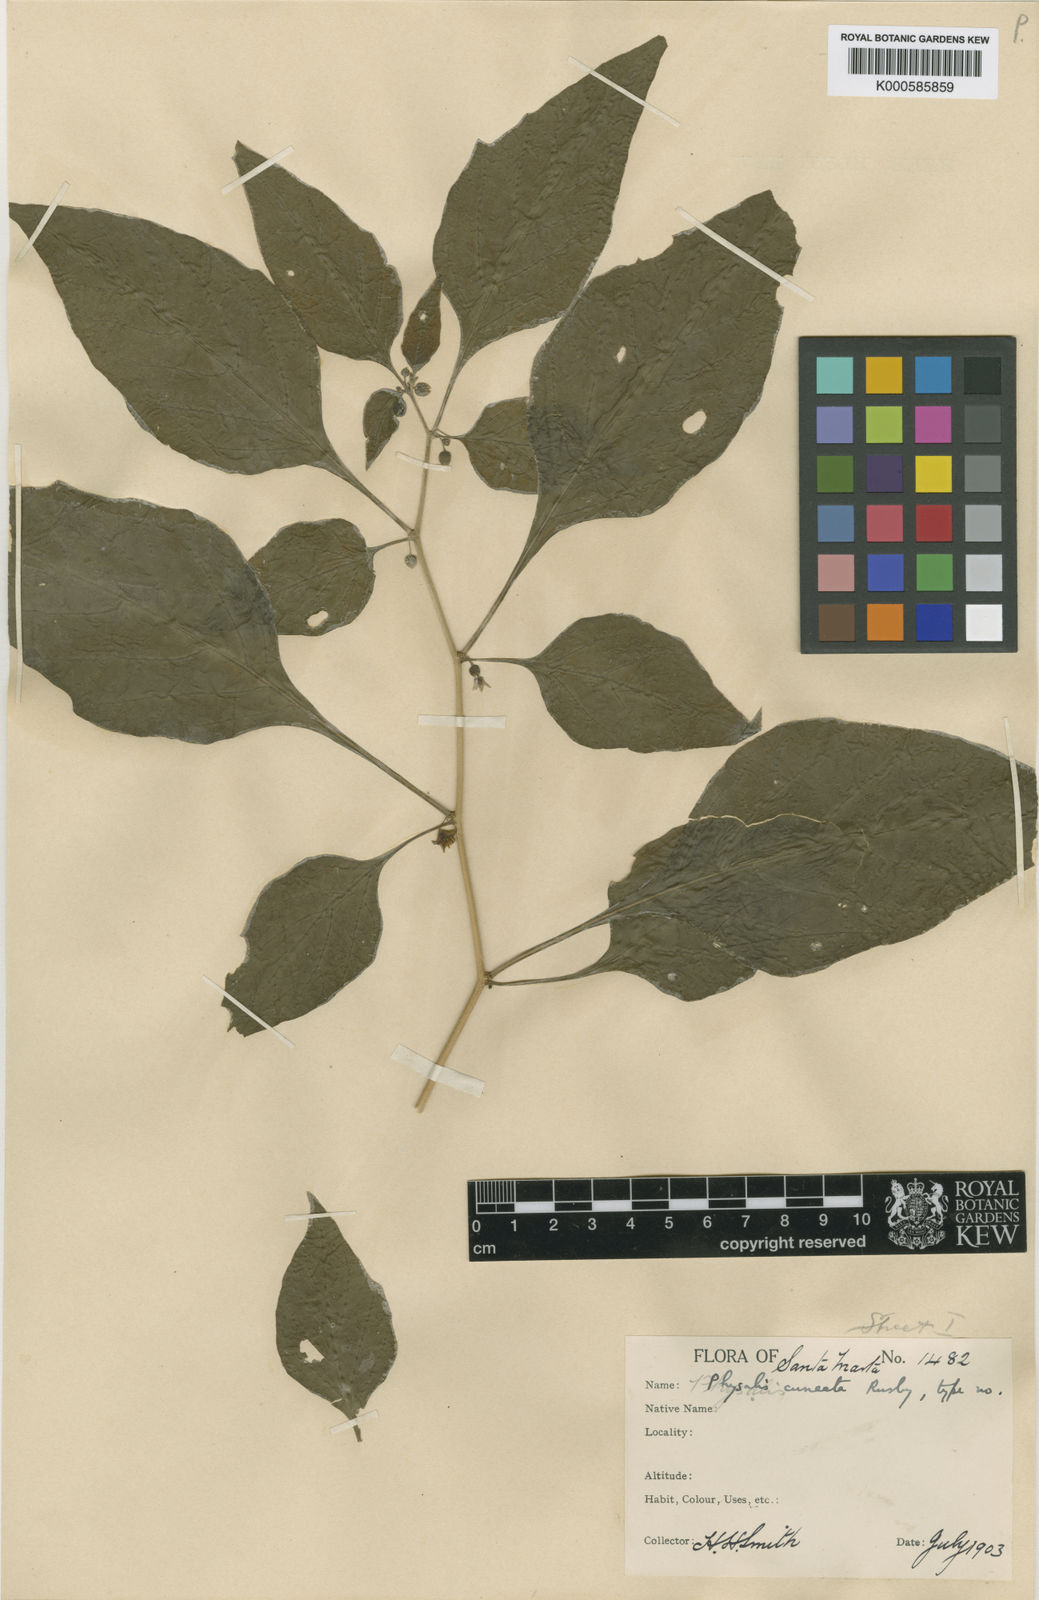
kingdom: Plantae
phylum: Tracheophyta
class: Magnoliopsida
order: Solanales
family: Solanaceae
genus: Physalis
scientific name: Physalis angulata
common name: Angular winter-cherry
